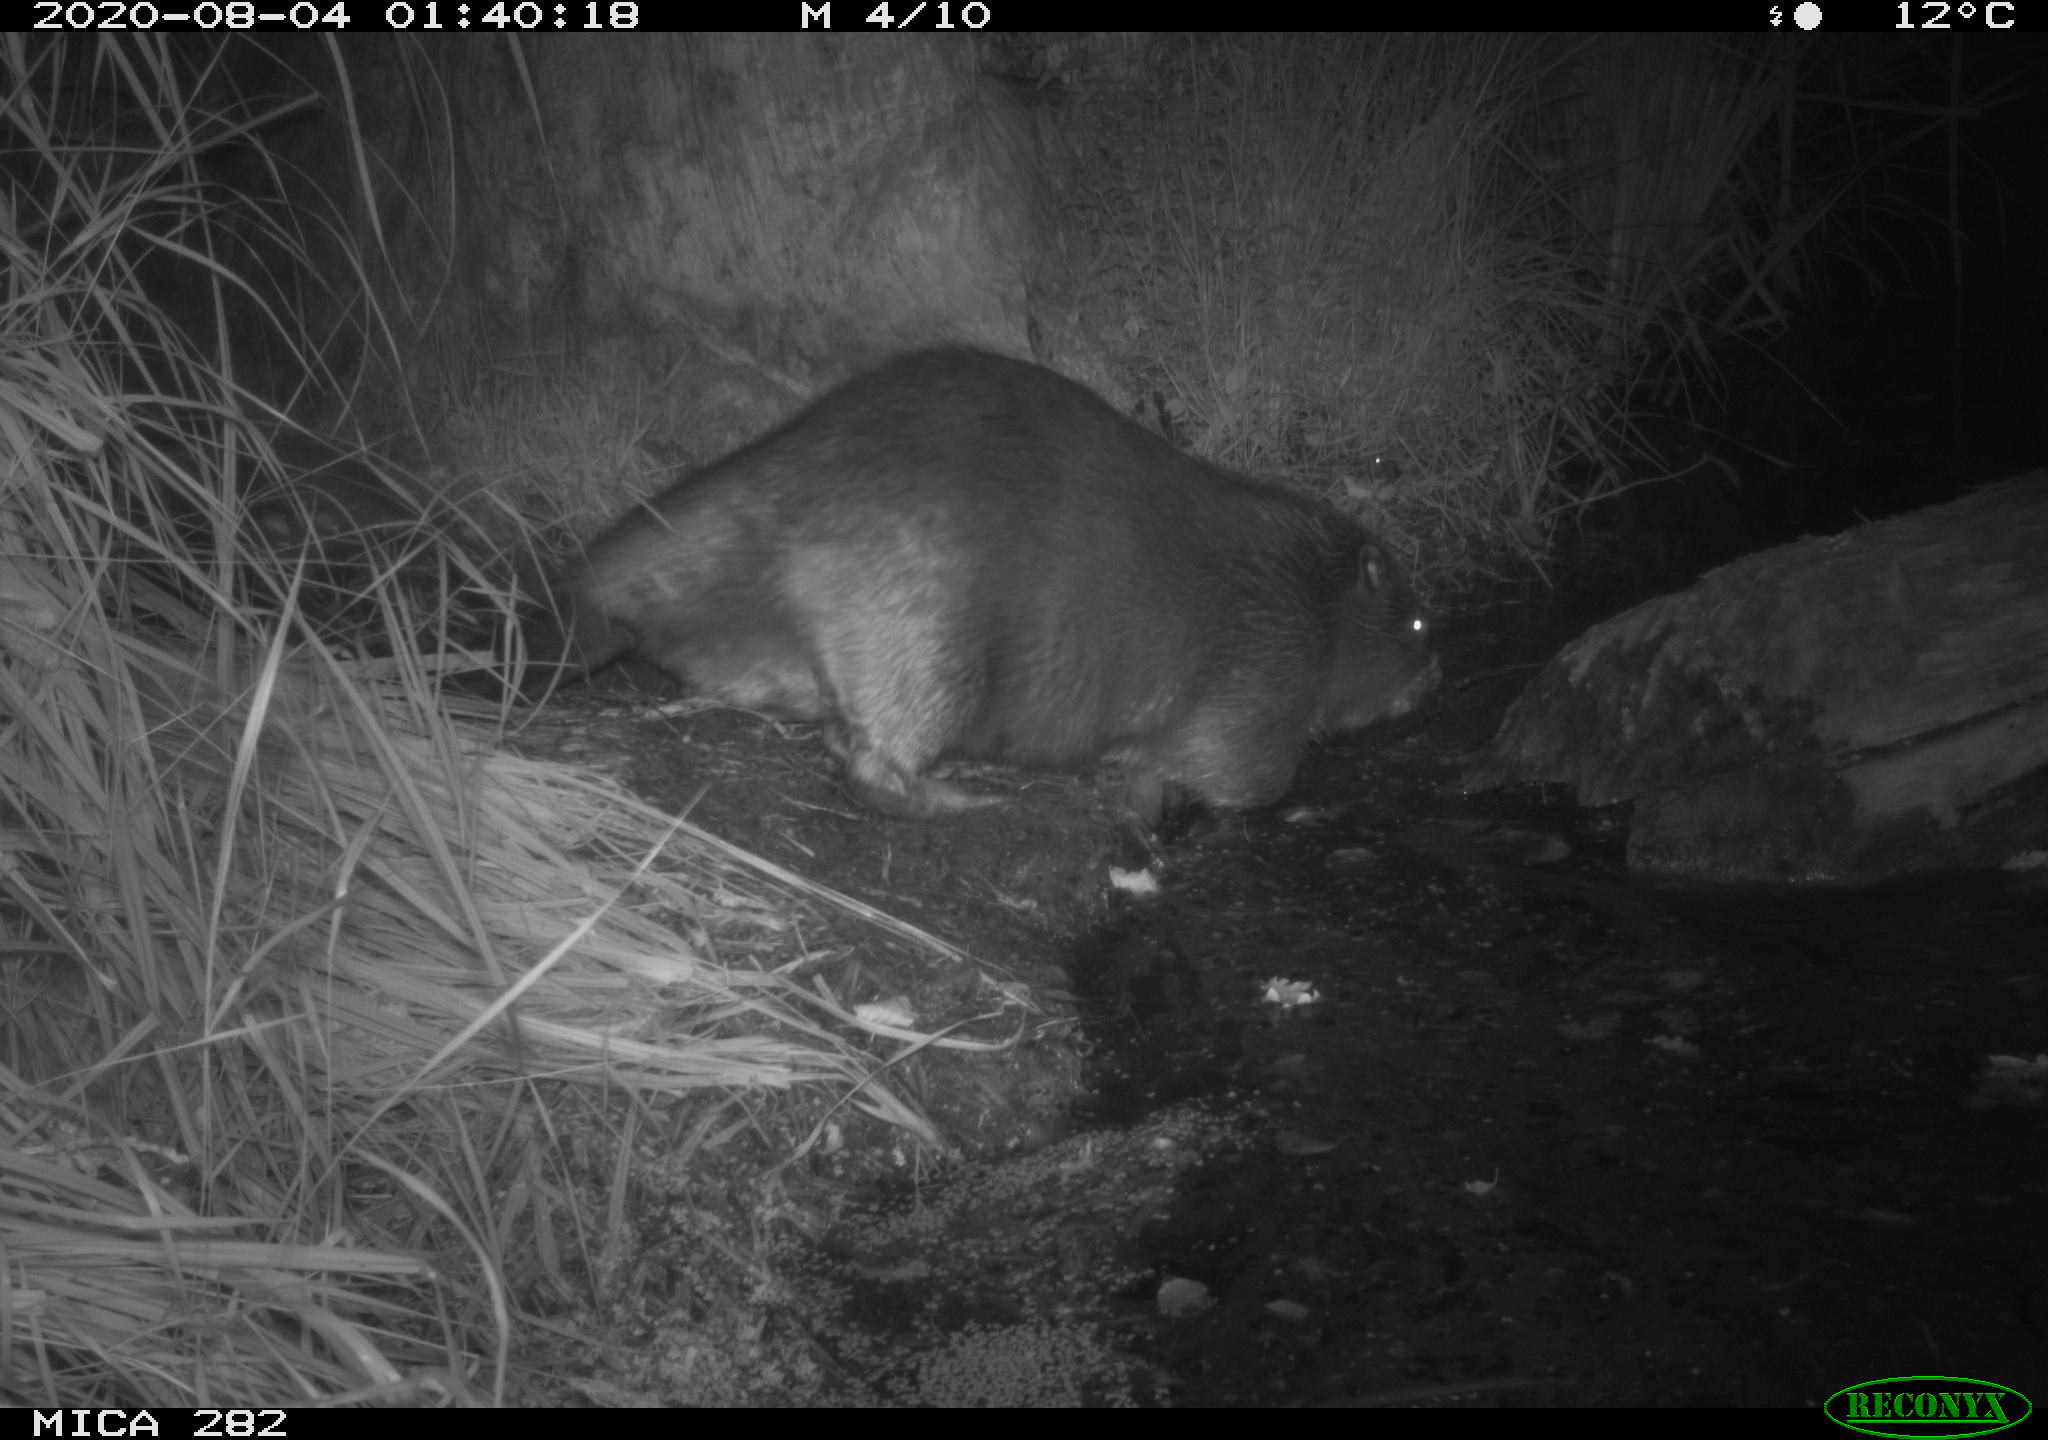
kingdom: Animalia
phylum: Chordata
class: Mammalia
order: Rodentia
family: Castoridae
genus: Castor
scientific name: Castor fiber
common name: Eurasian beaver
